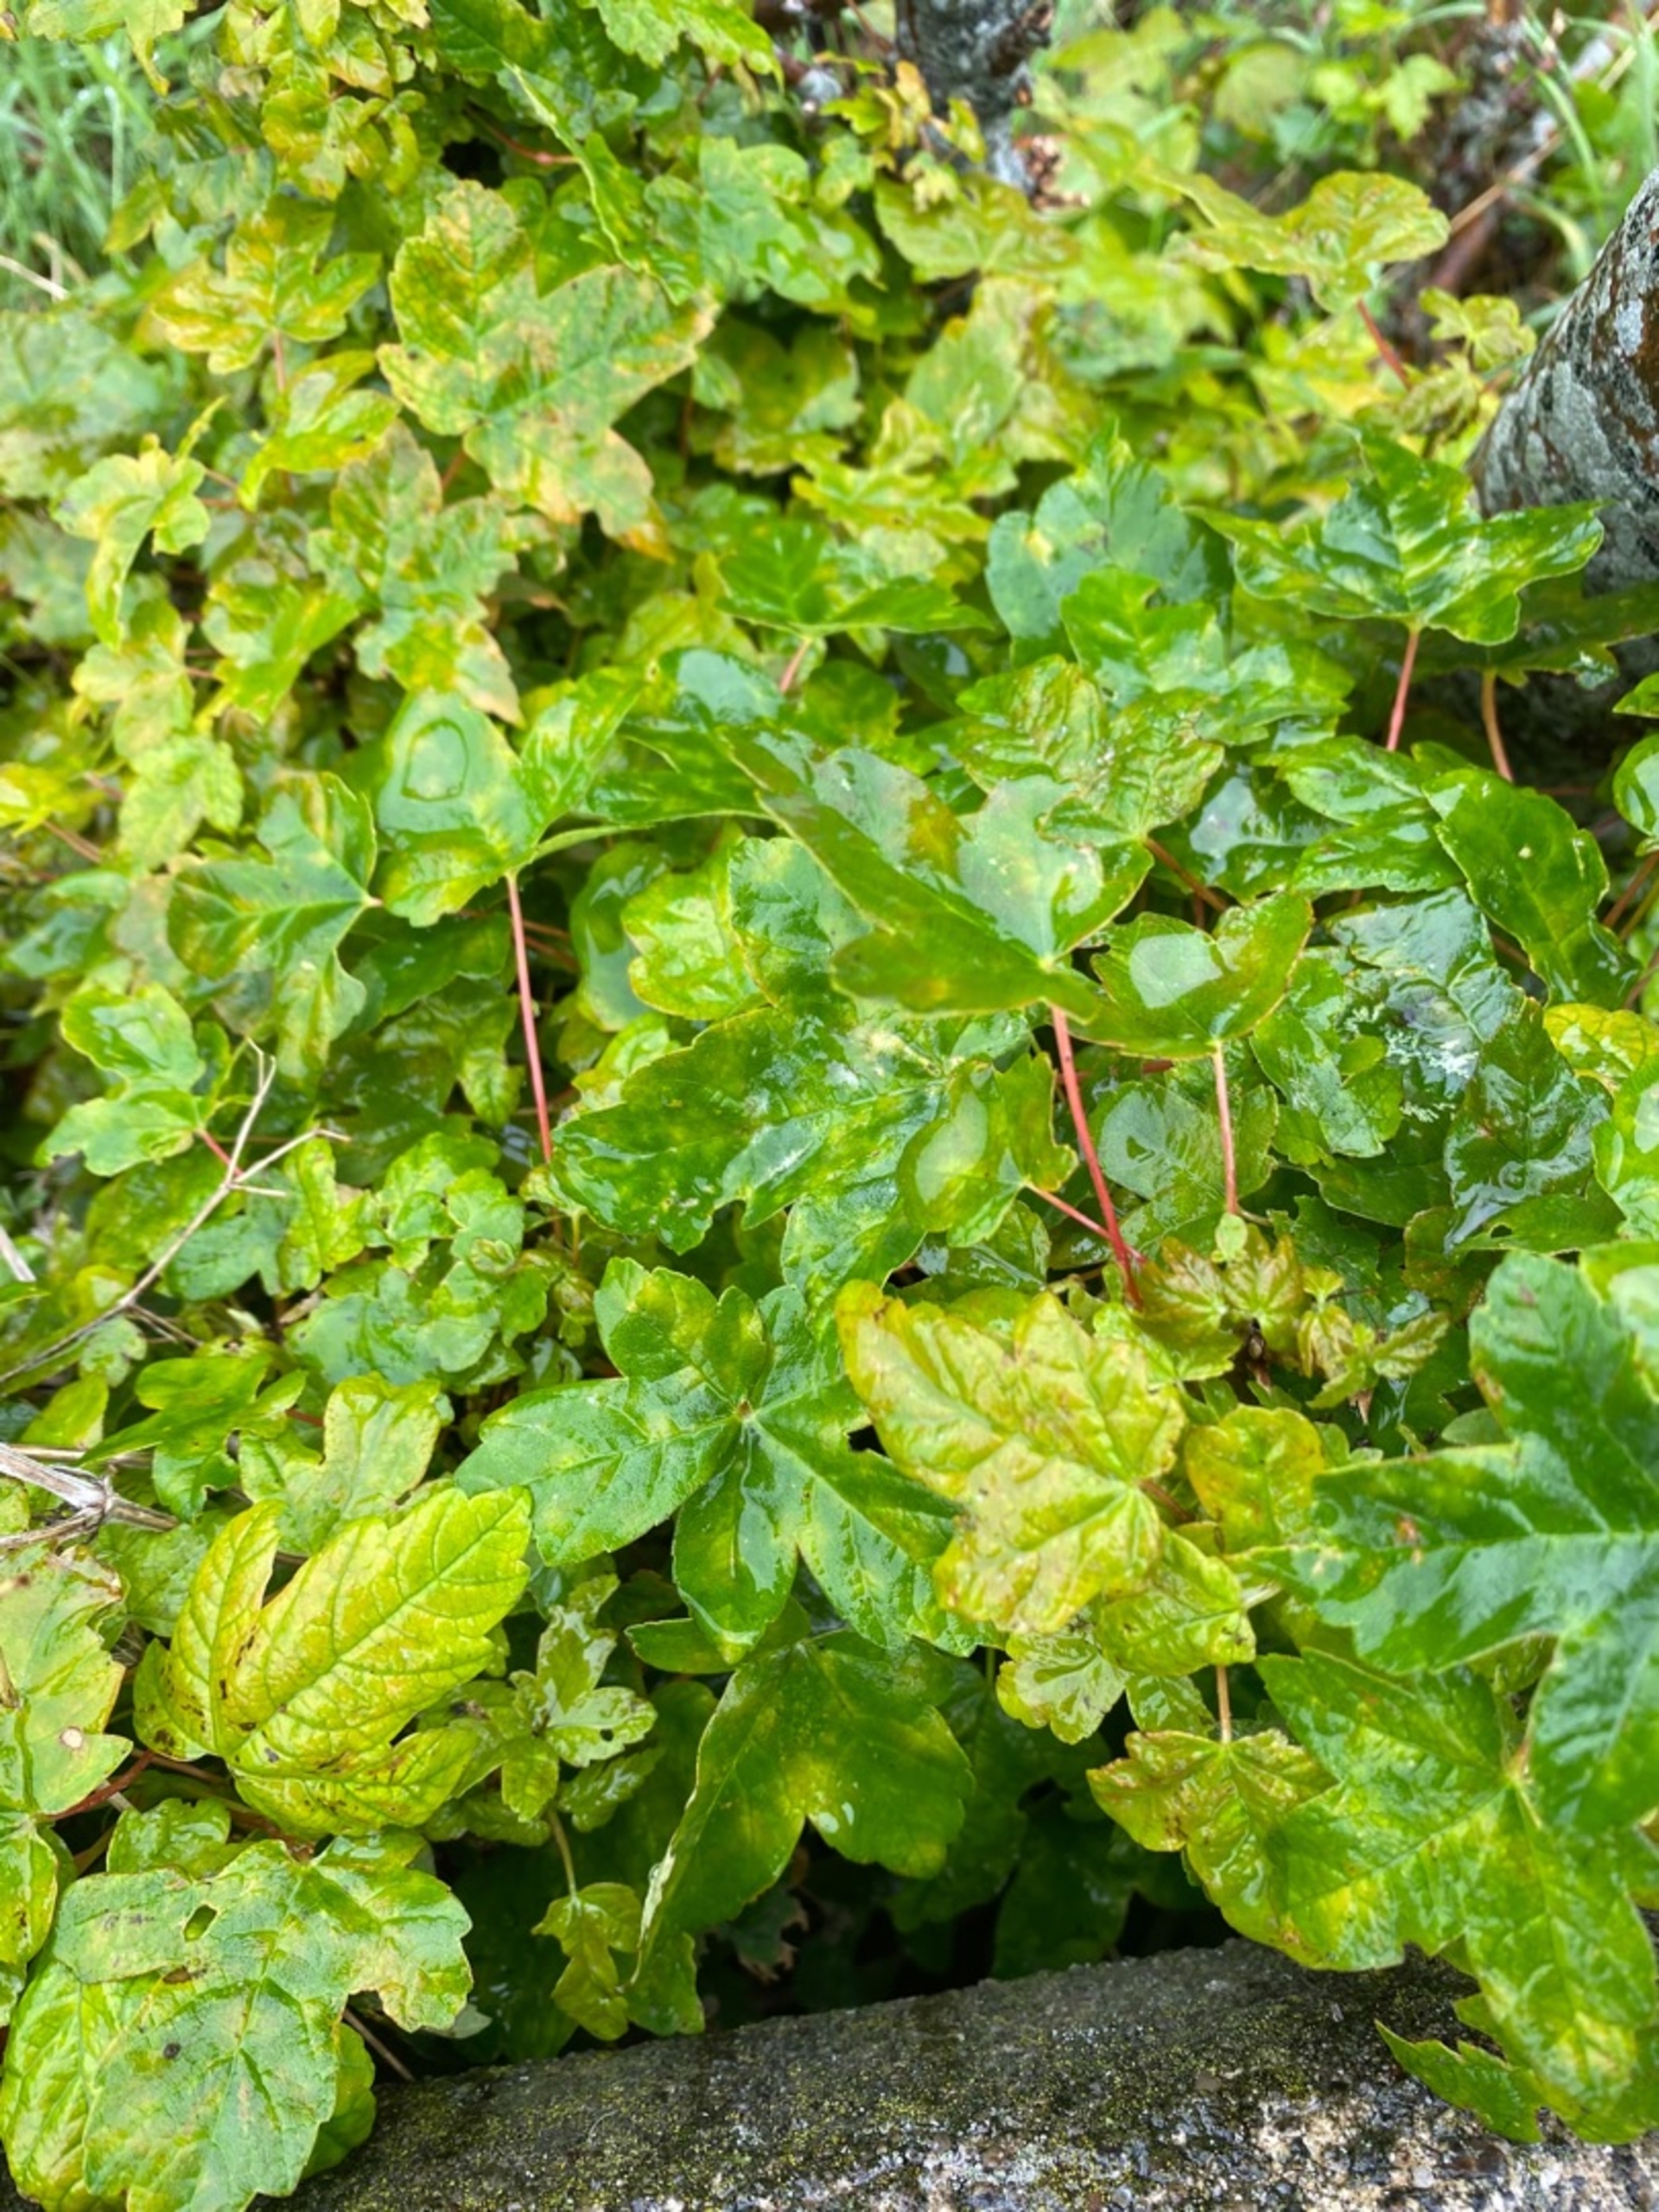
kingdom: Plantae
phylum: Tracheophyta
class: Magnoliopsida
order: Sapindales
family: Sapindaceae
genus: Acer
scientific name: Acer campestre
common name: Navr
